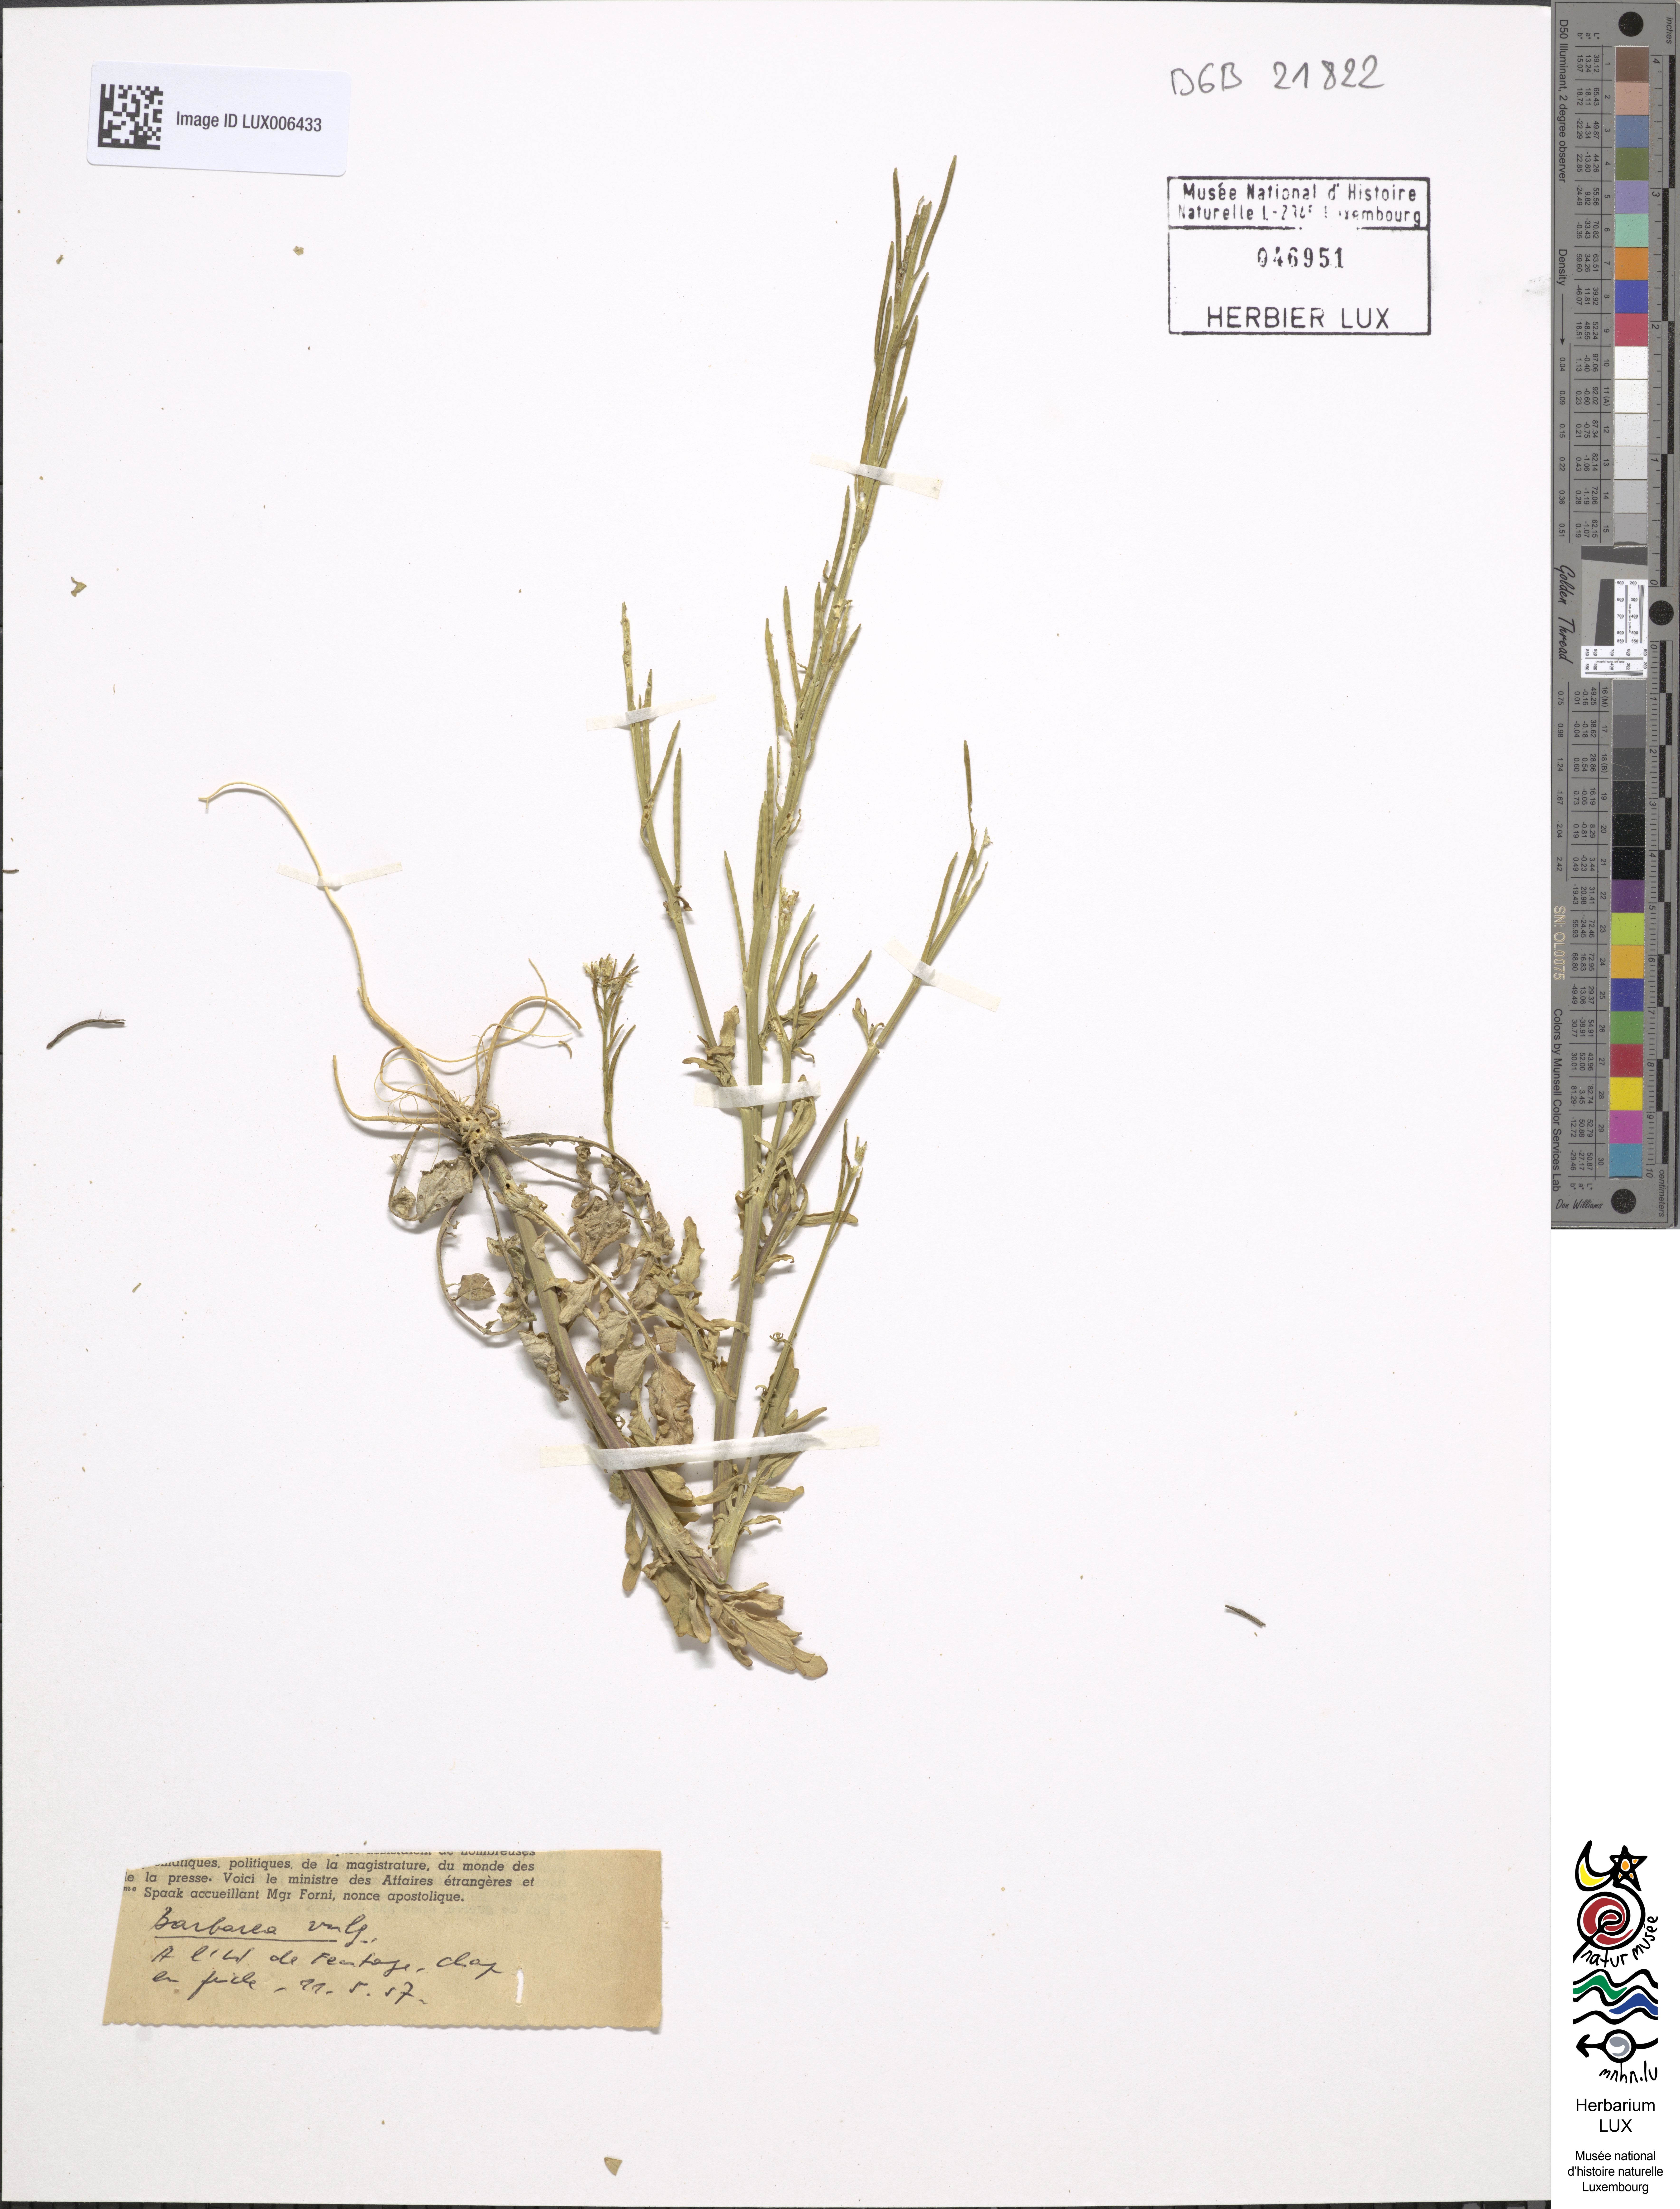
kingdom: Plantae
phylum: Tracheophyta
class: Magnoliopsida
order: Ranunculales
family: Berberidaceae
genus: Berberis
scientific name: Berberis vulgaris
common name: Barberry
